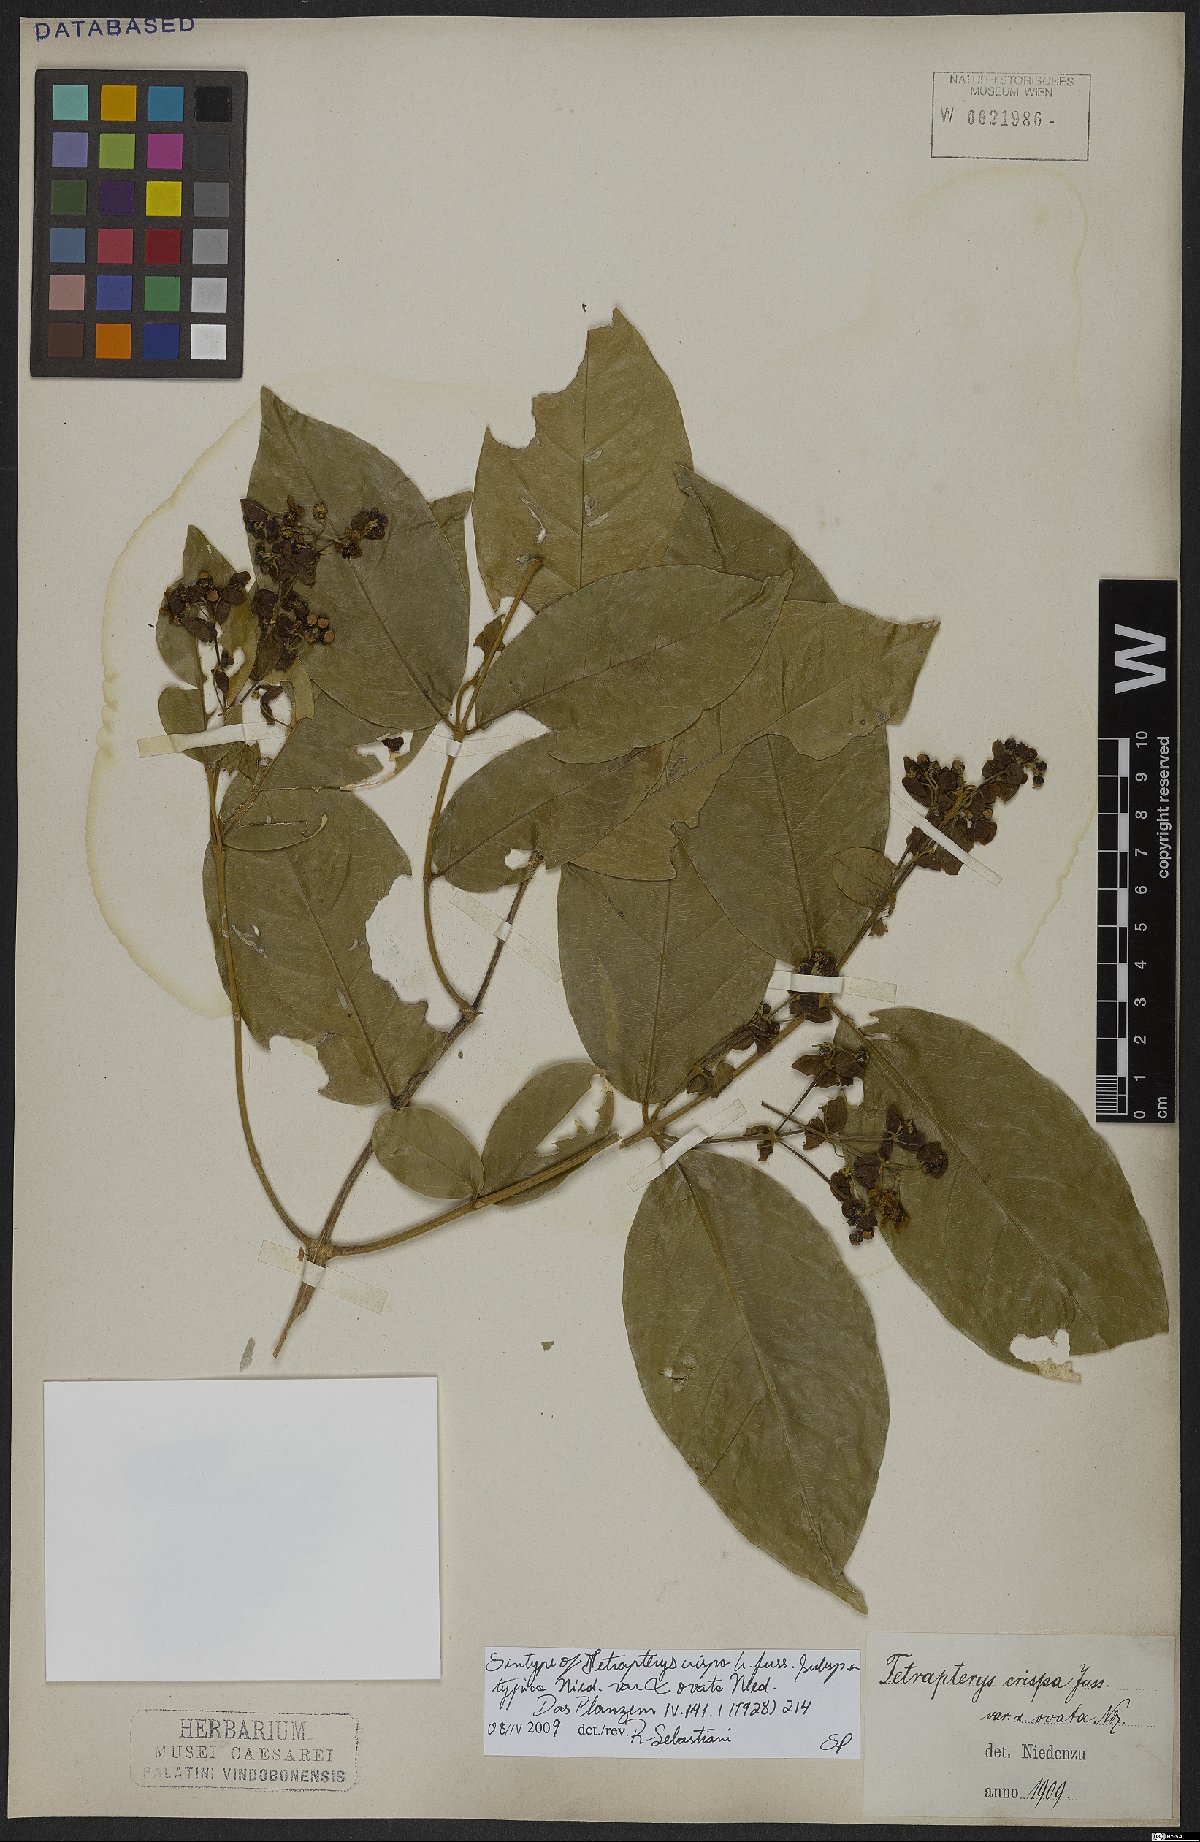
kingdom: Plantae
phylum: Tracheophyta
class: Magnoliopsida
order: Malpighiales
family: Malpighiaceae
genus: Tetrapterys
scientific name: Tetrapterys crispa
